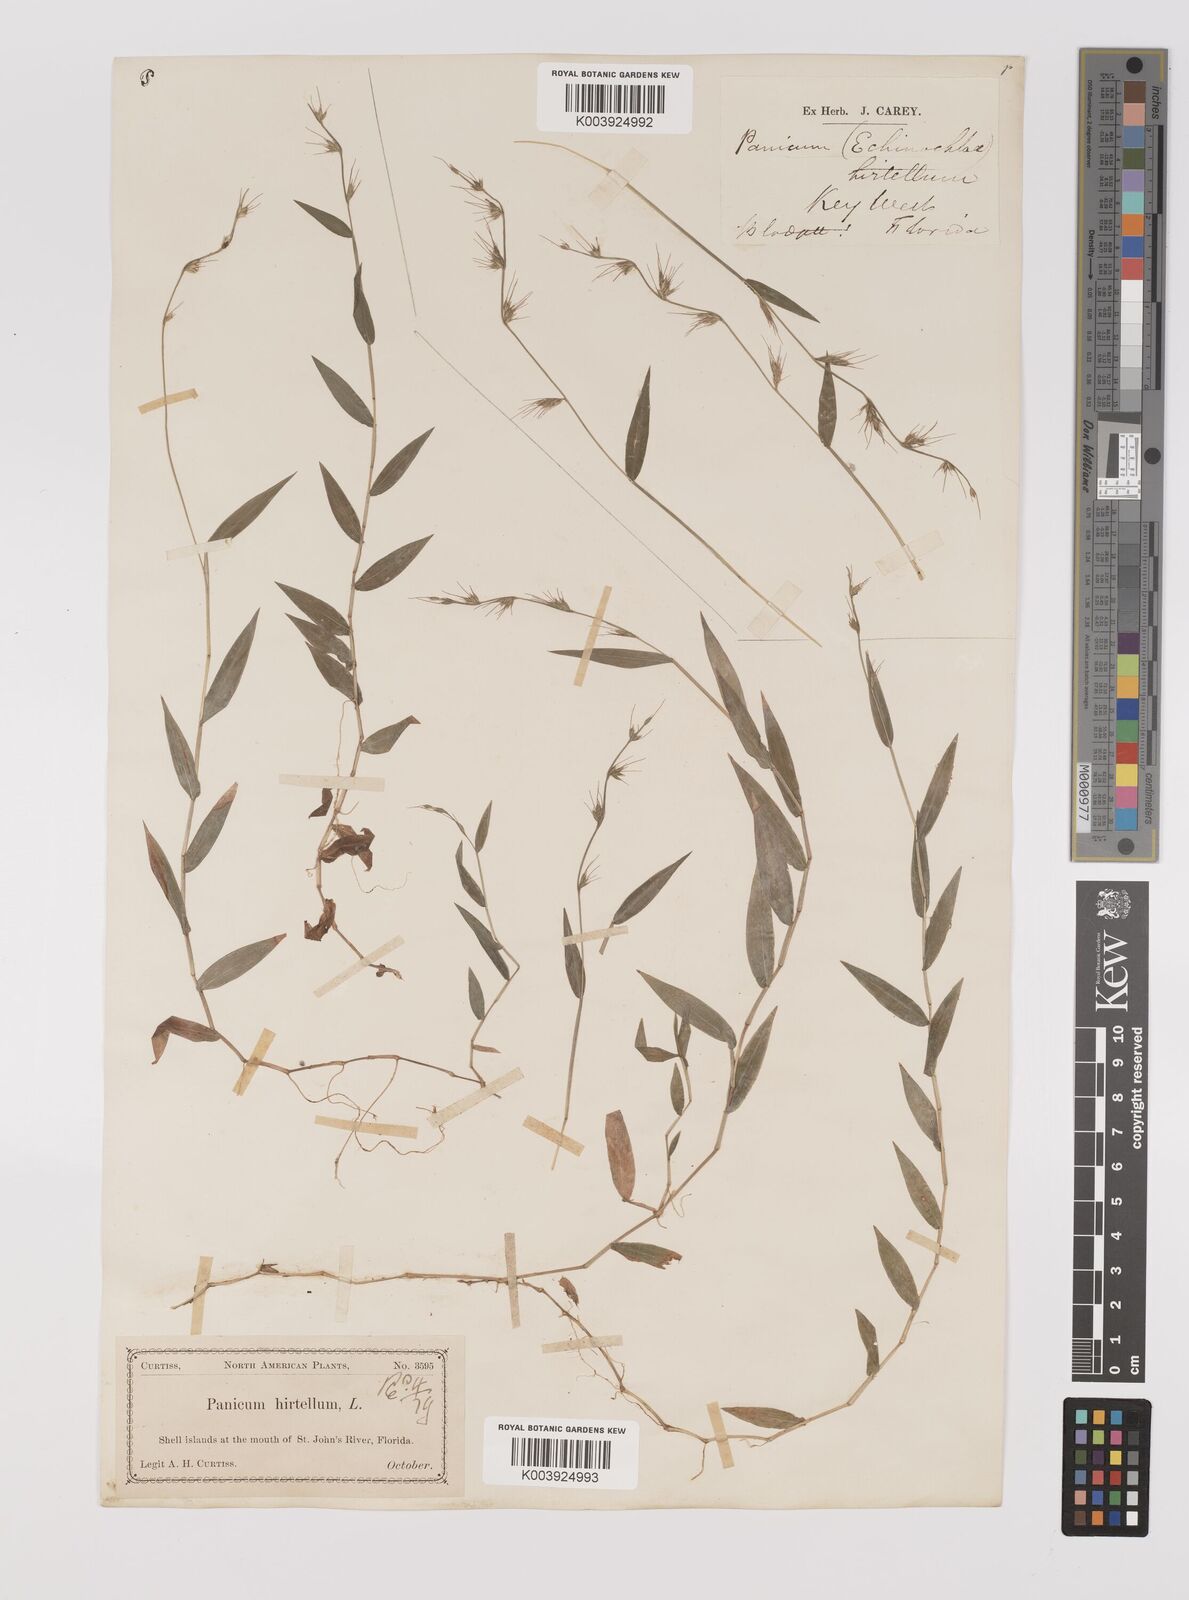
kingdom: Plantae
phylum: Tracheophyta
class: Liliopsida
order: Poales
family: Poaceae
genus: Oplismenus
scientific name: Oplismenus undulatifolius
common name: Wavyleaf basketgrass
